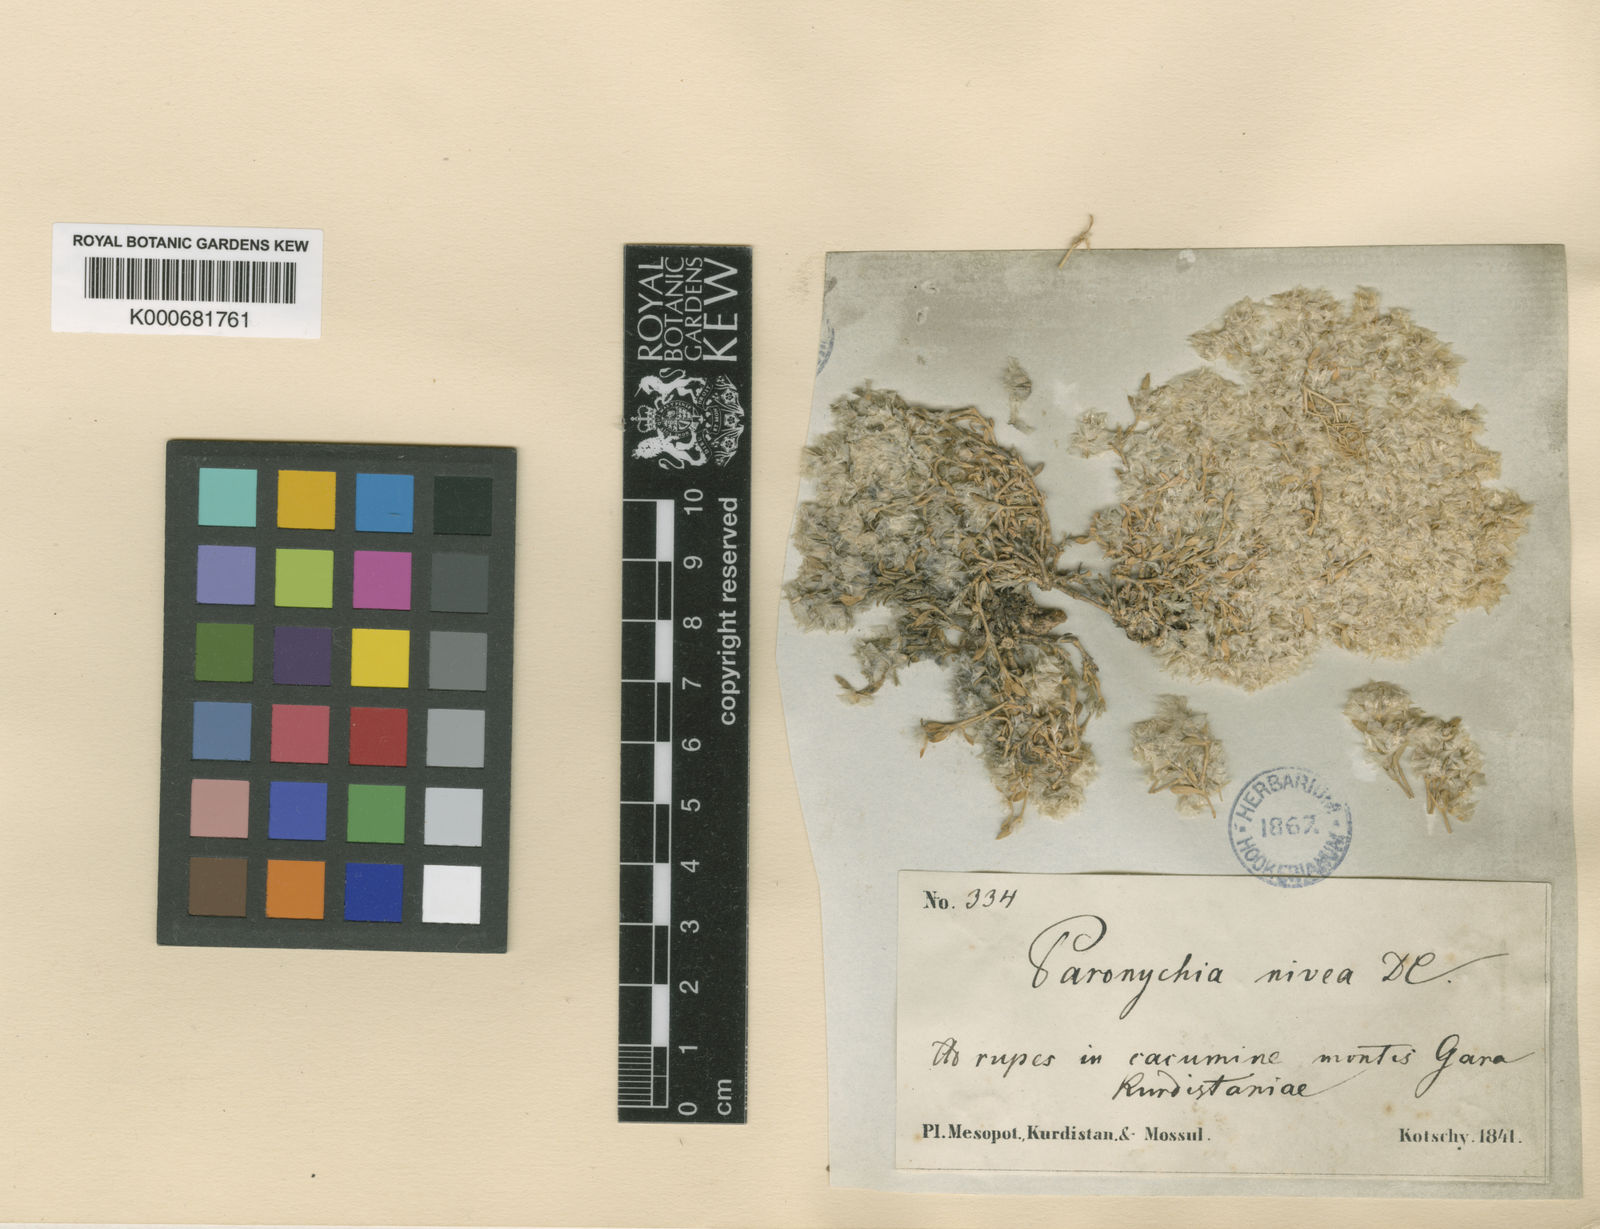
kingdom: Plantae
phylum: Tracheophyta
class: Magnoliopsida
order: Caryophyllales
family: Caryophyllaceae
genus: Paronychia
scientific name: Paronychia kurdica
